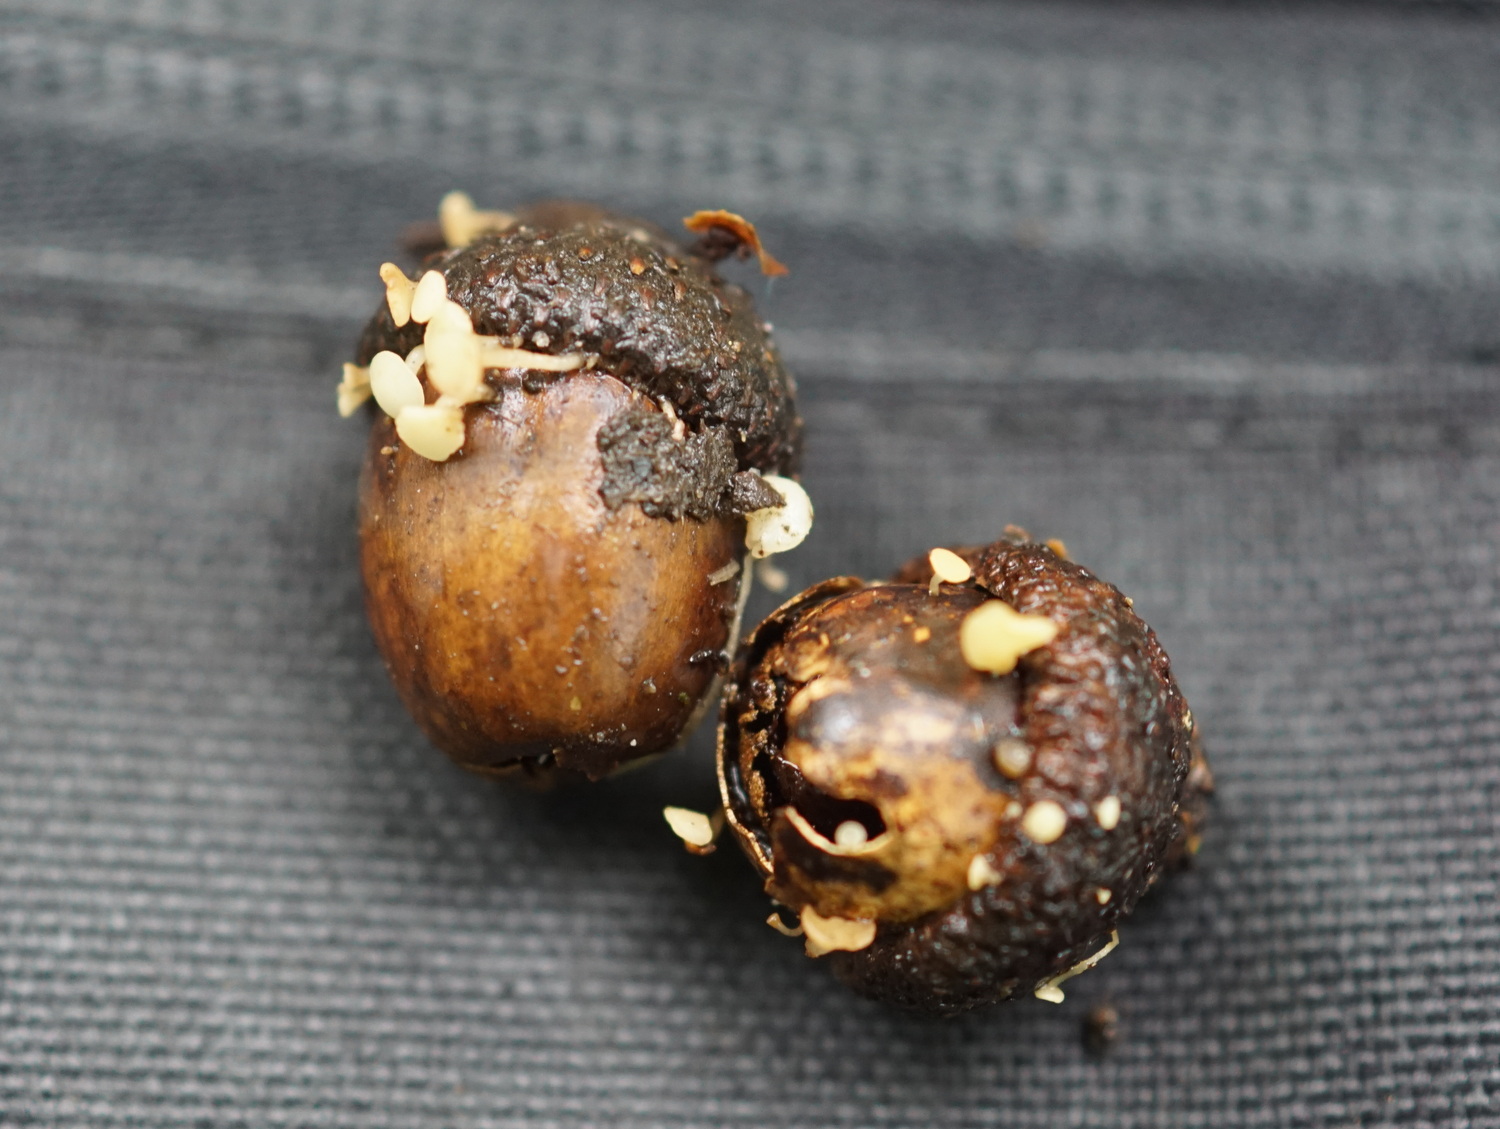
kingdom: Fungi
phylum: Ascomycota
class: Leotiomycetes
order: Helotiales
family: Helotiaceae
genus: Hymenoscyphus
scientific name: Hymenoscyphus fructigenus
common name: frugt-stilkskive
